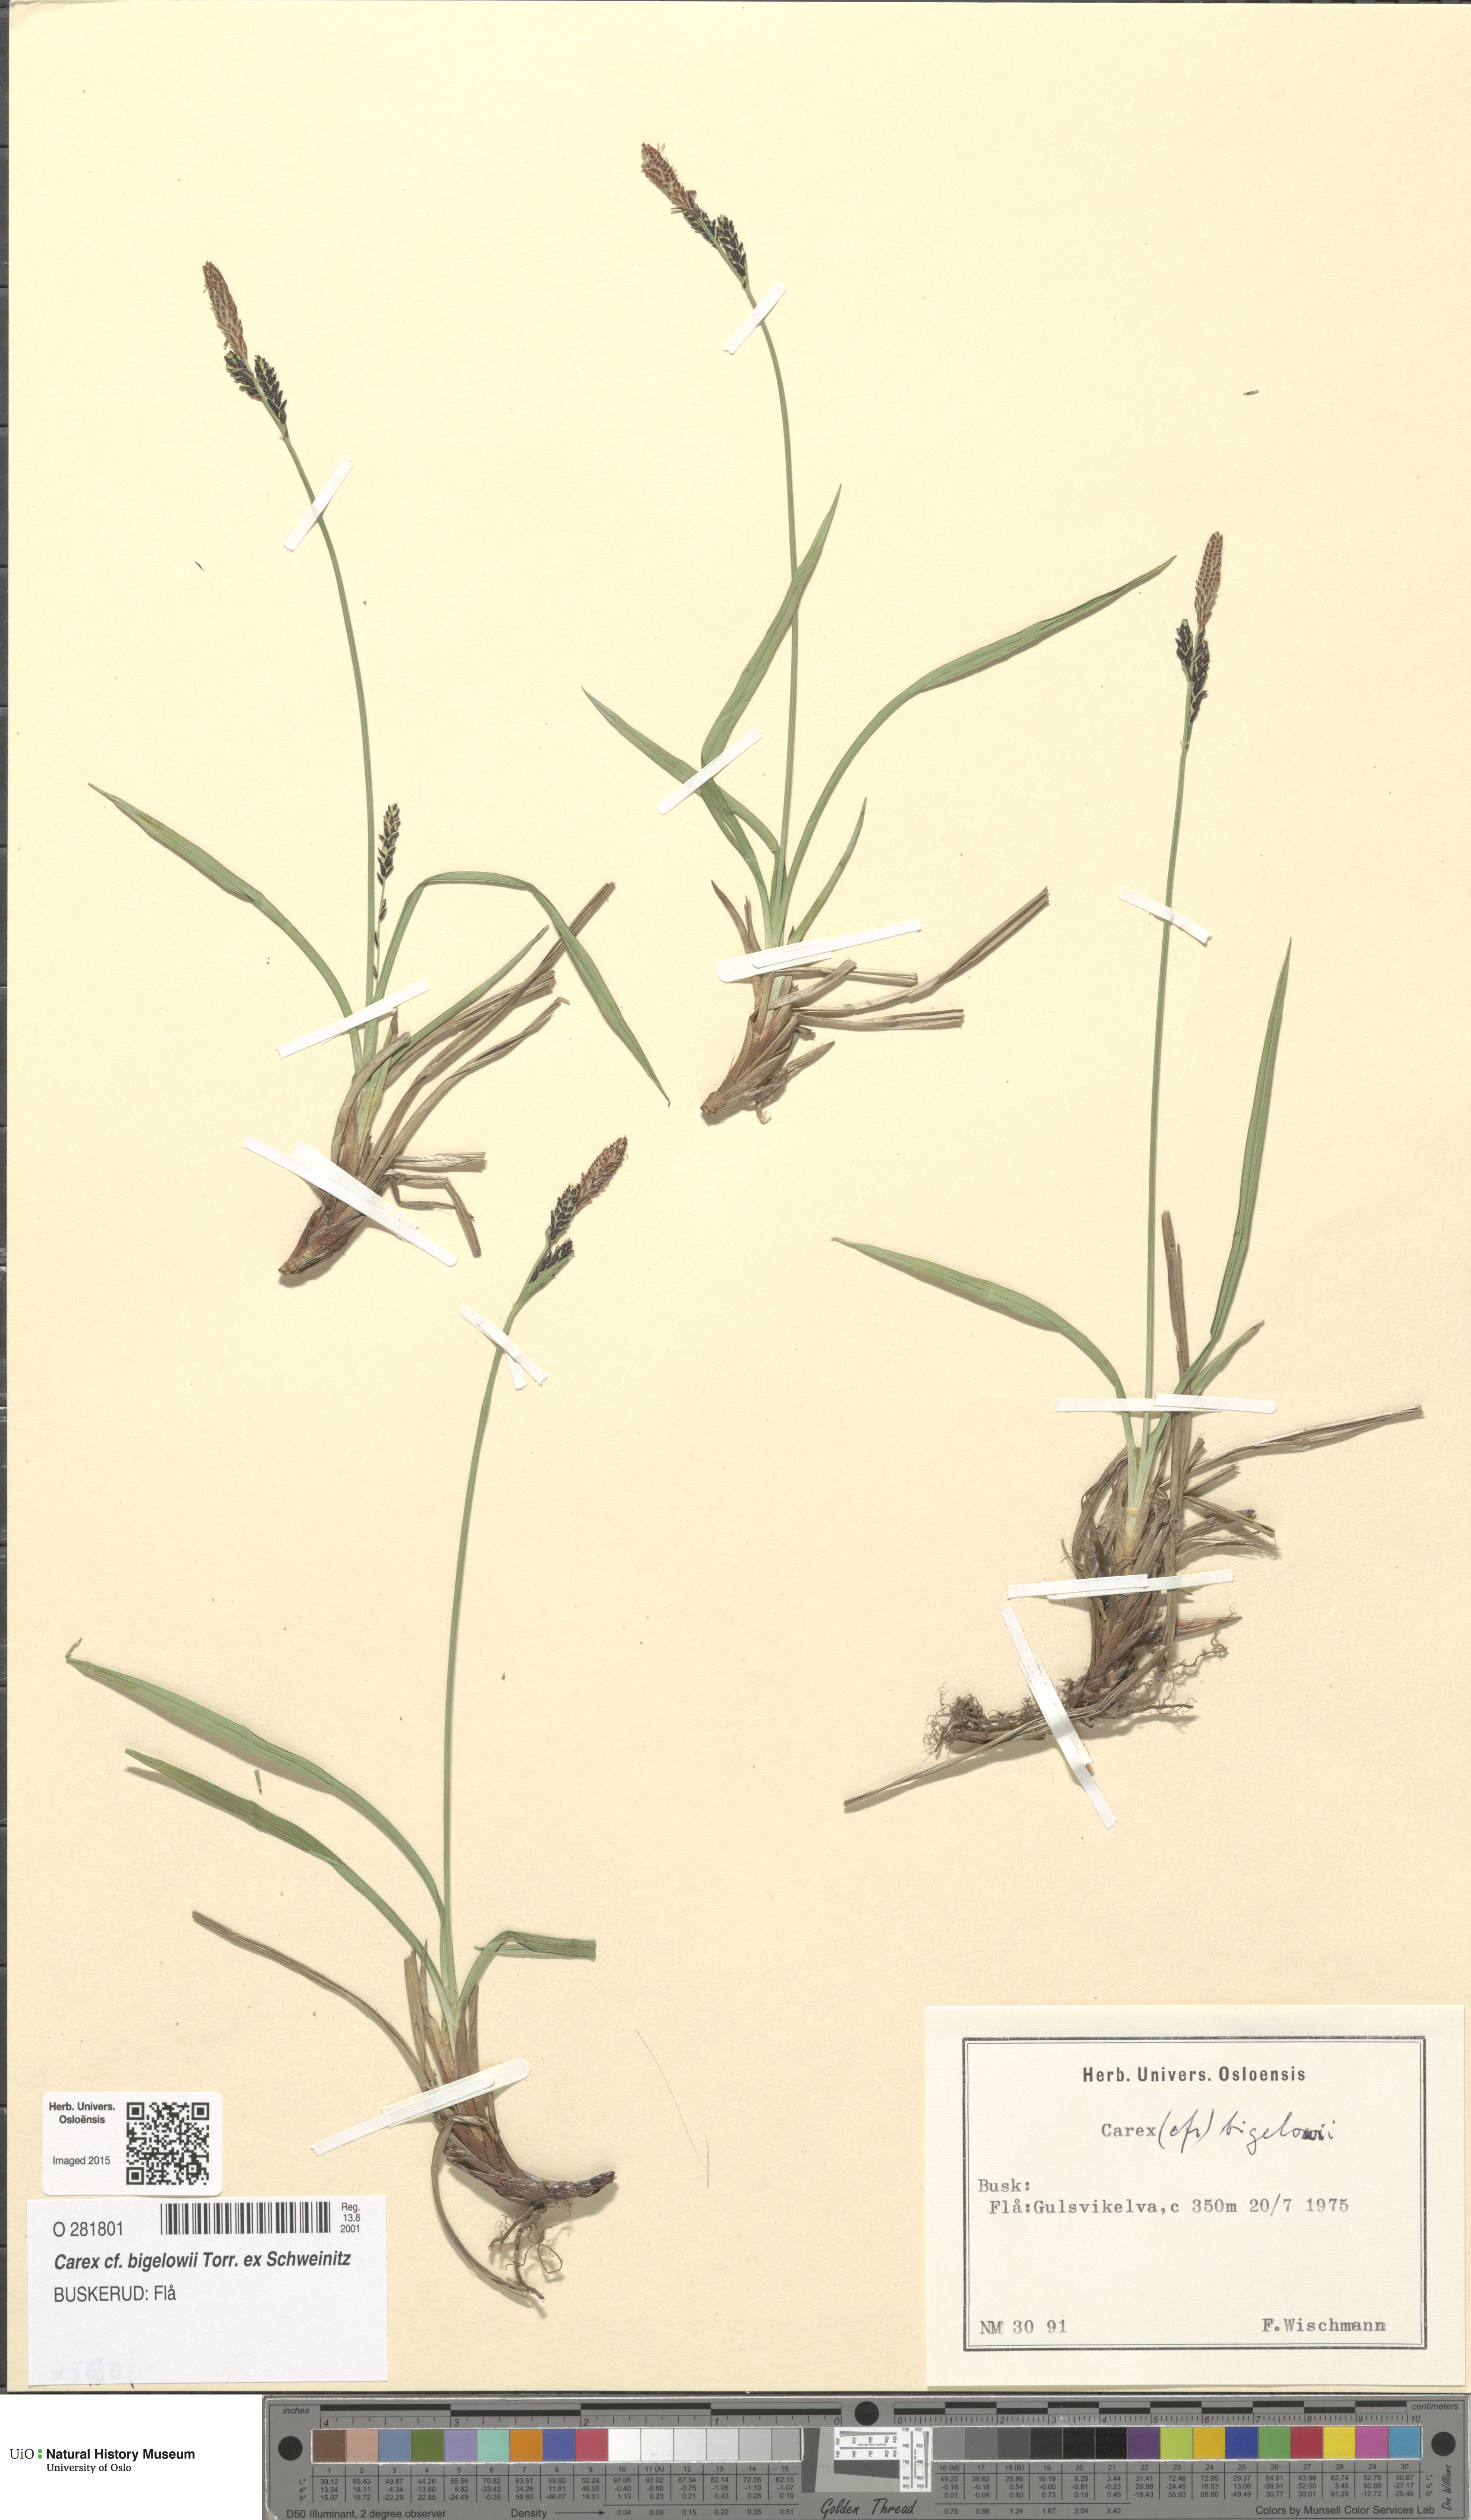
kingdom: Plantae
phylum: Tracheophyta
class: Liliopsida
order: Poales
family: Cyperaceae
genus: Carex
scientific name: Carex bigelowii
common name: Stiff sedge
